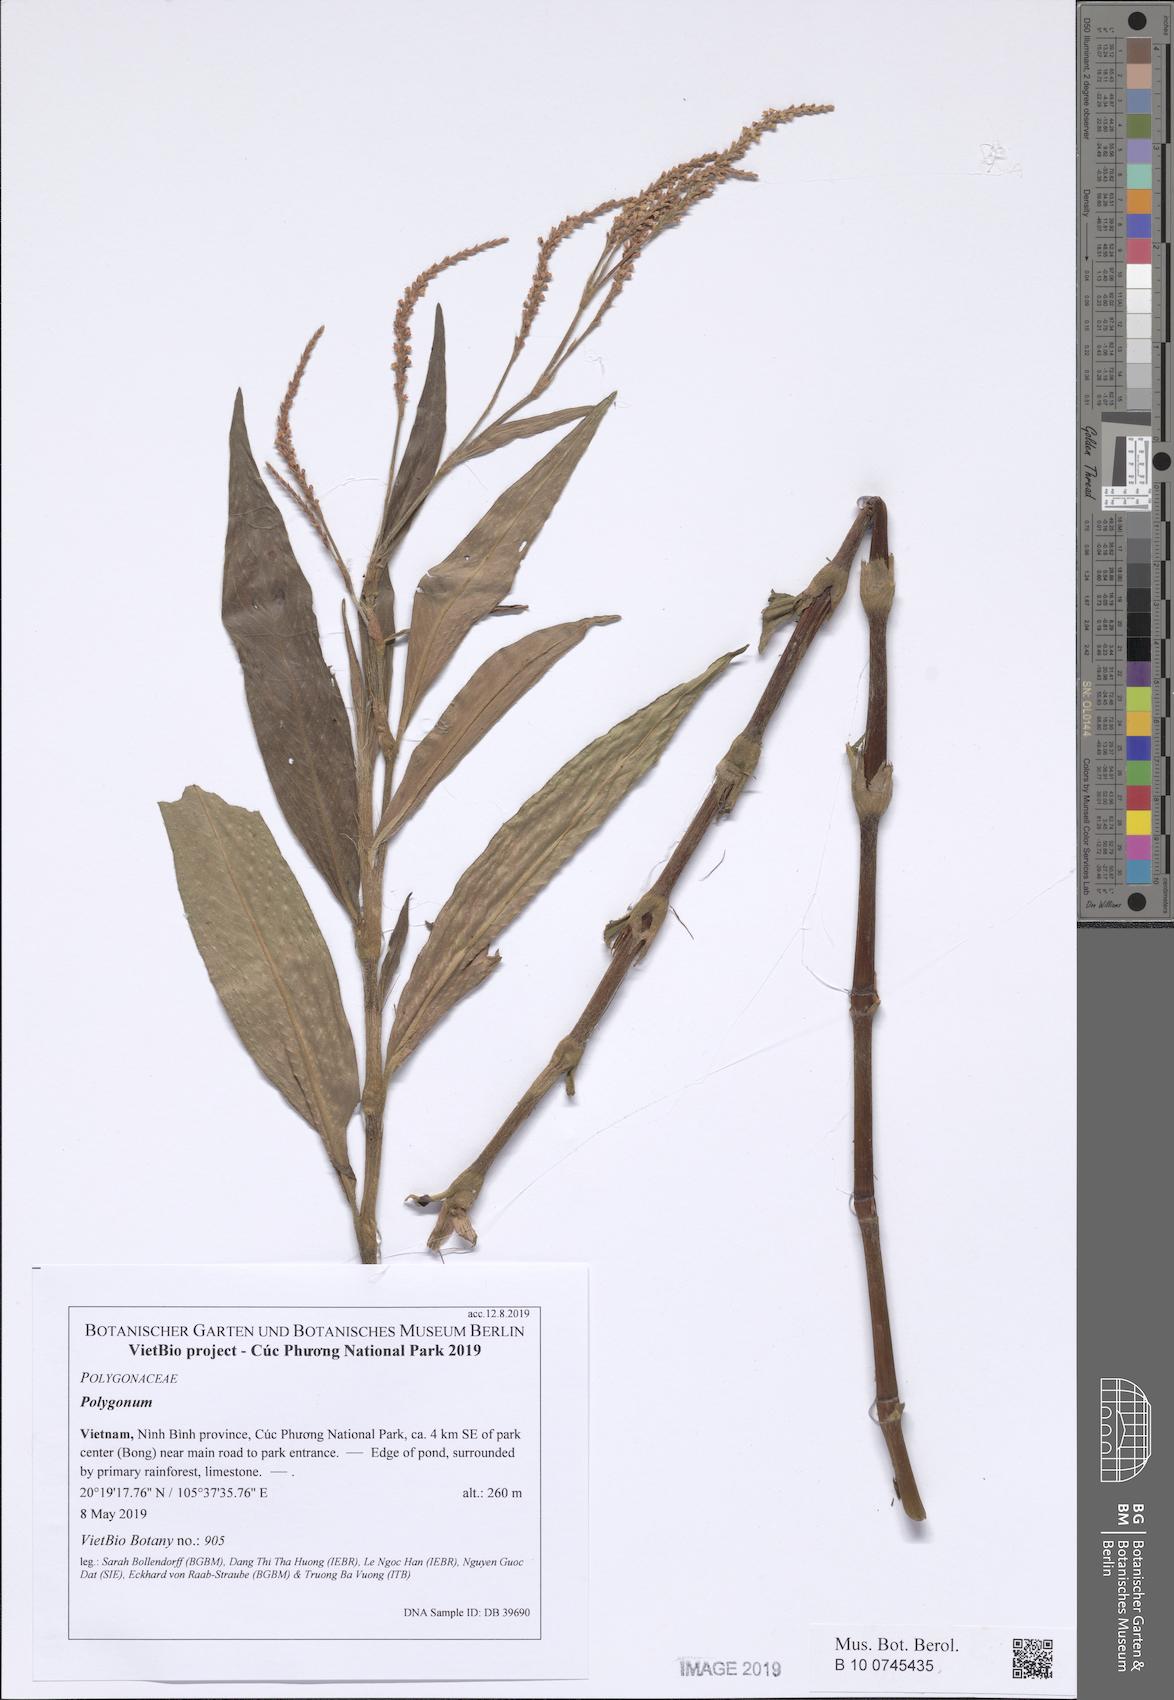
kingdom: Plantae
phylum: Tracheophyta
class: Magnoliopsida
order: Caryophyllales
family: Polygonaceae
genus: Persicaria
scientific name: Persicaria pulchra
